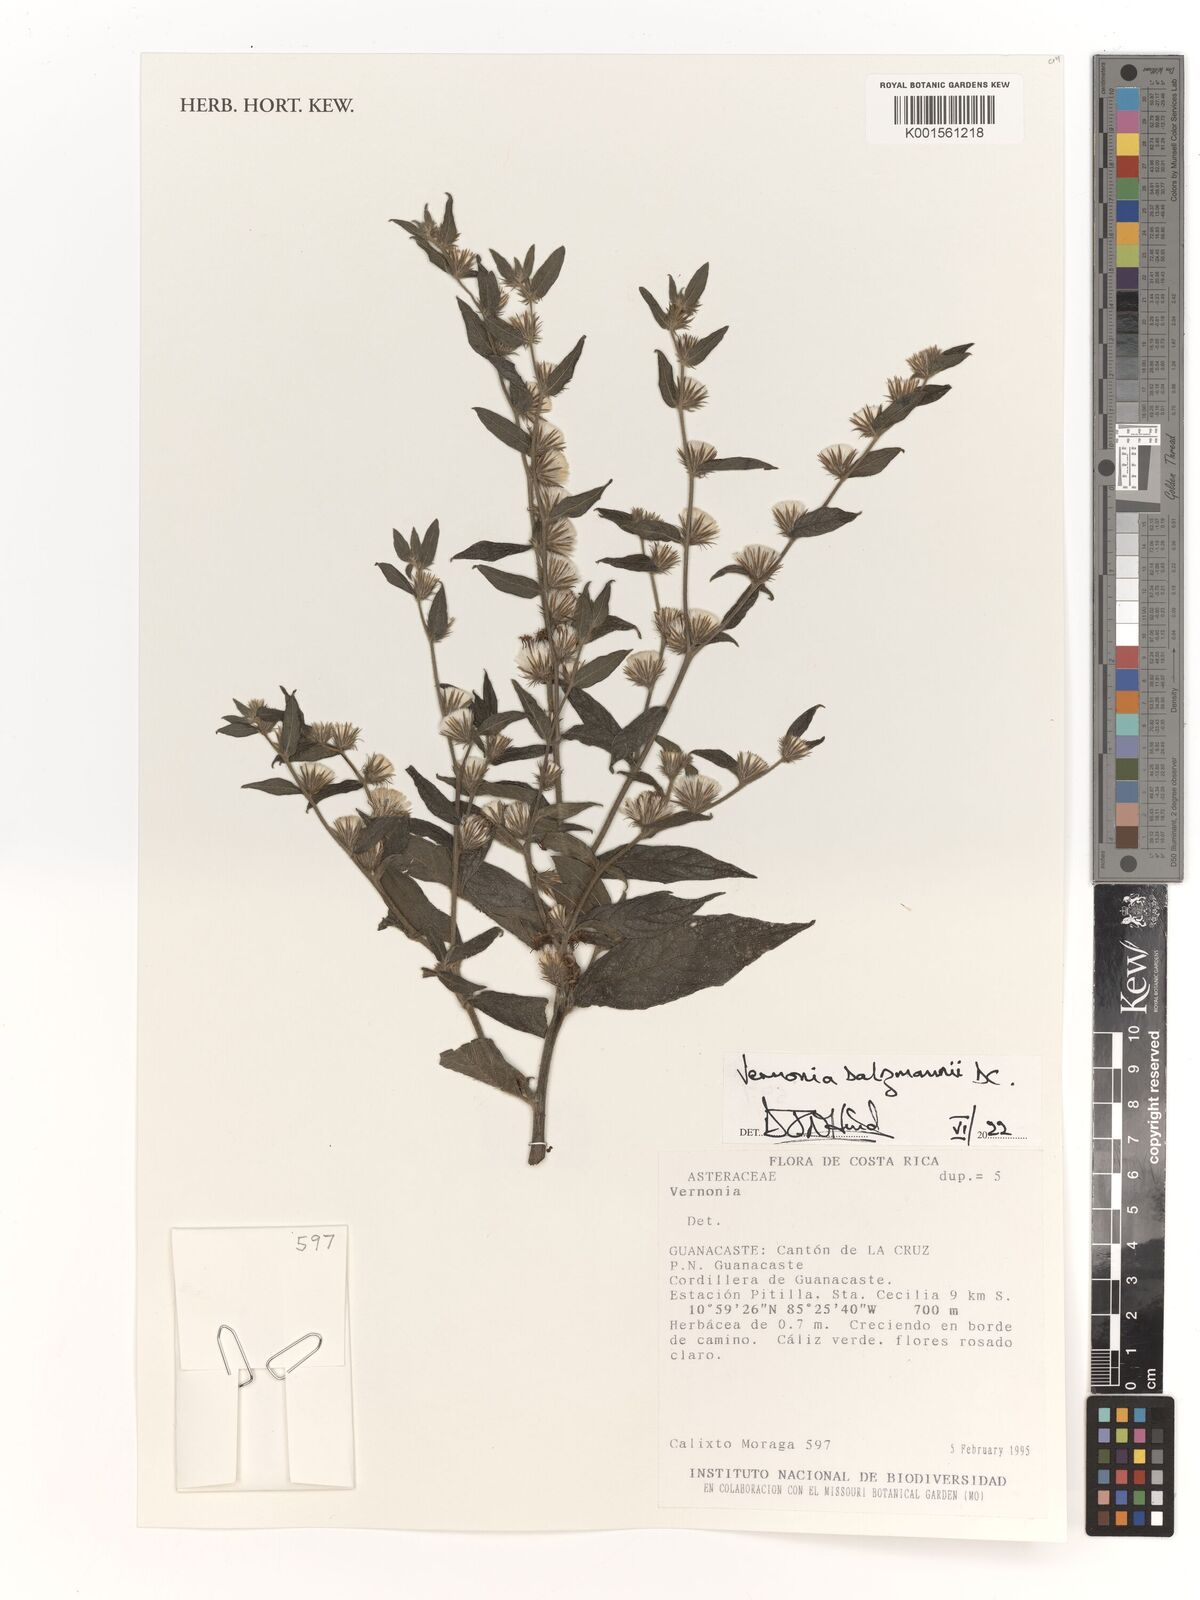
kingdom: Plantae
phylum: Tracheophyta
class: Magnoliopsida
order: Asterales
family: Asteraceae
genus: Lepidaploa
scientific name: Lepidaploa salzmannii
